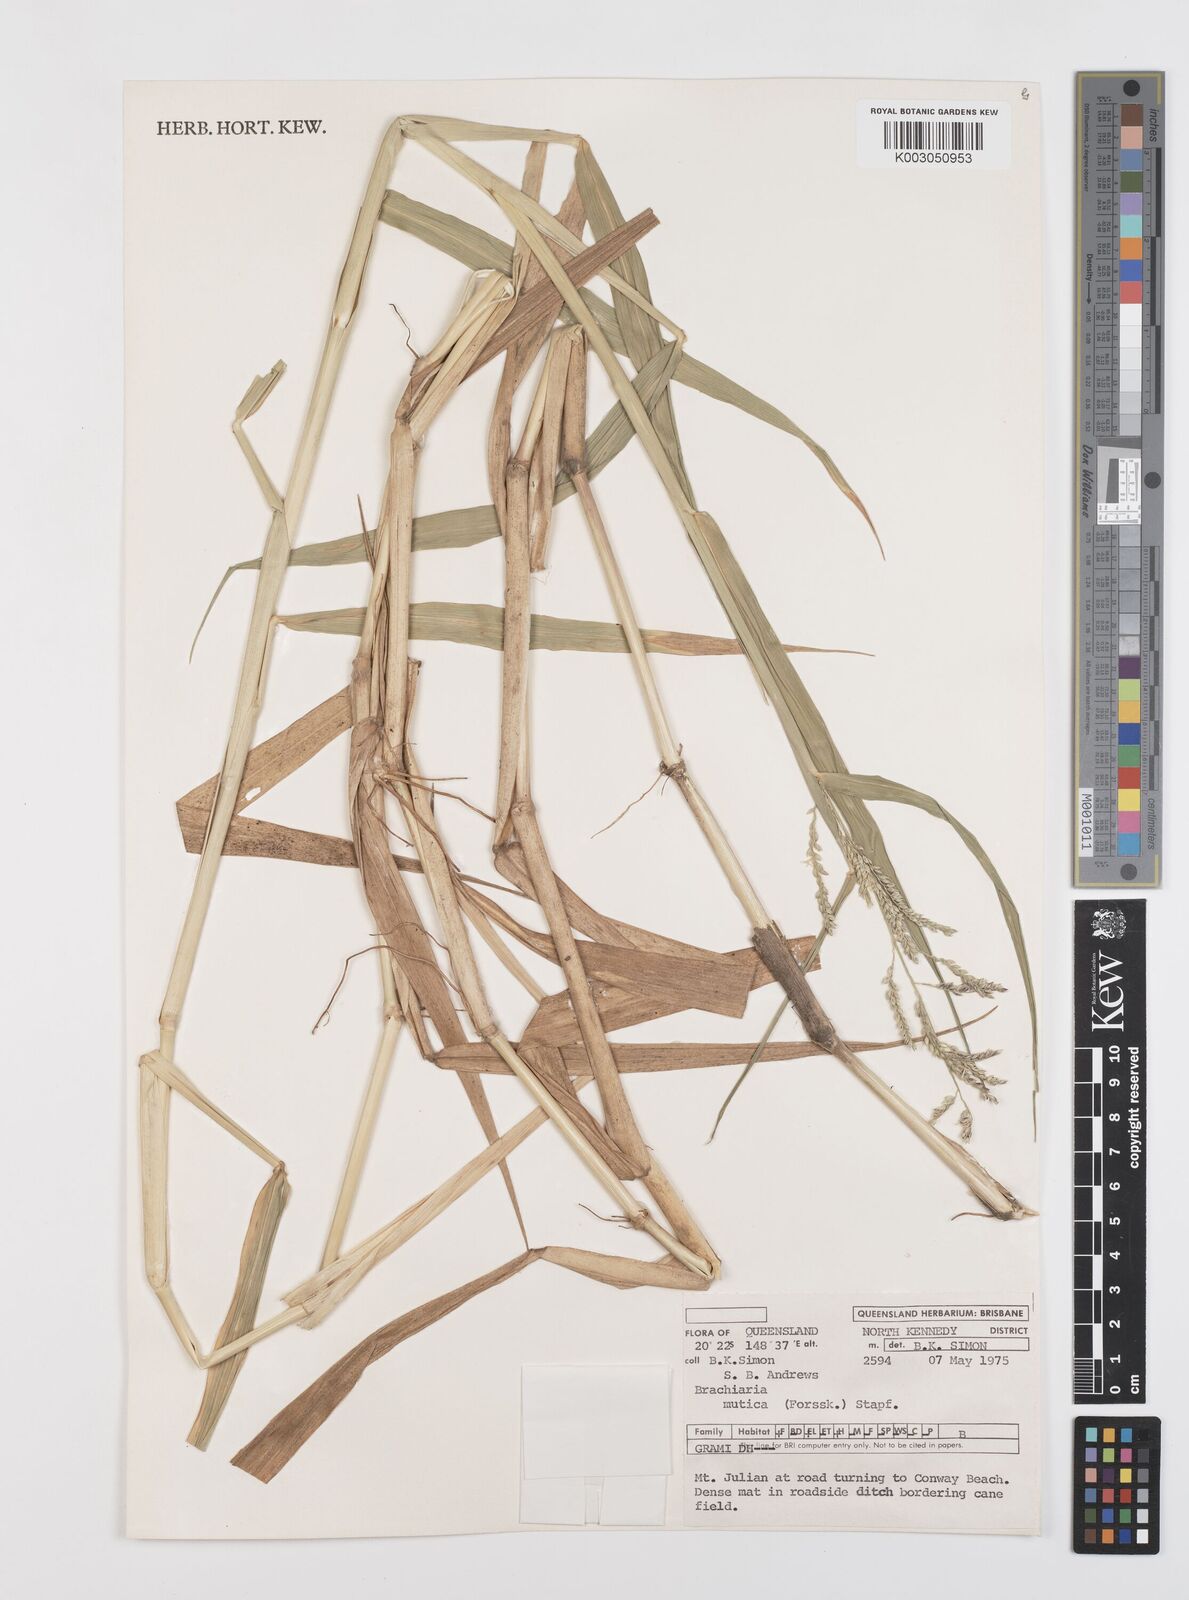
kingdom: Plantae
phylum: Tracheophyta
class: Liliopsida
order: Poales
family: Poaceae
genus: Urochloa
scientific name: Urochloa mutica
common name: Para grass
